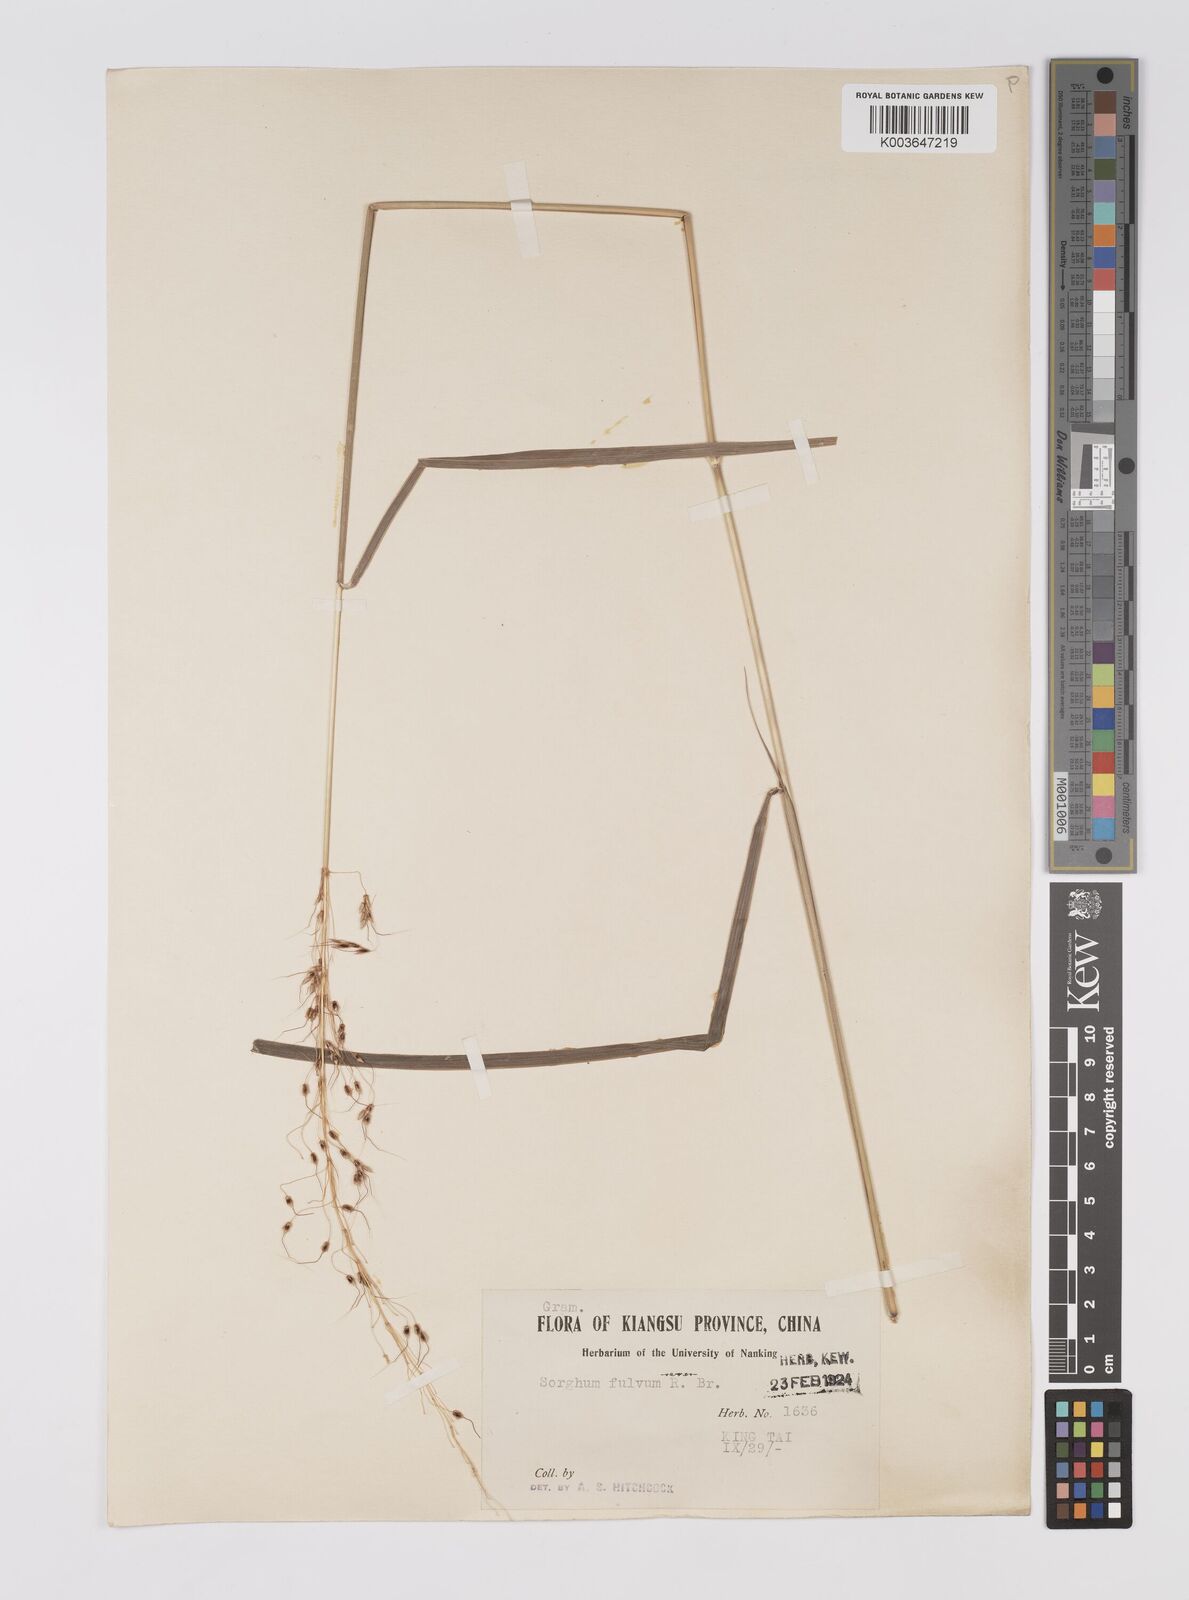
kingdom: Plantae
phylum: Tracheophyta
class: Liliopsida
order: Poales
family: Poaceae
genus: Sorghum
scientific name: Sorghum nitidum
